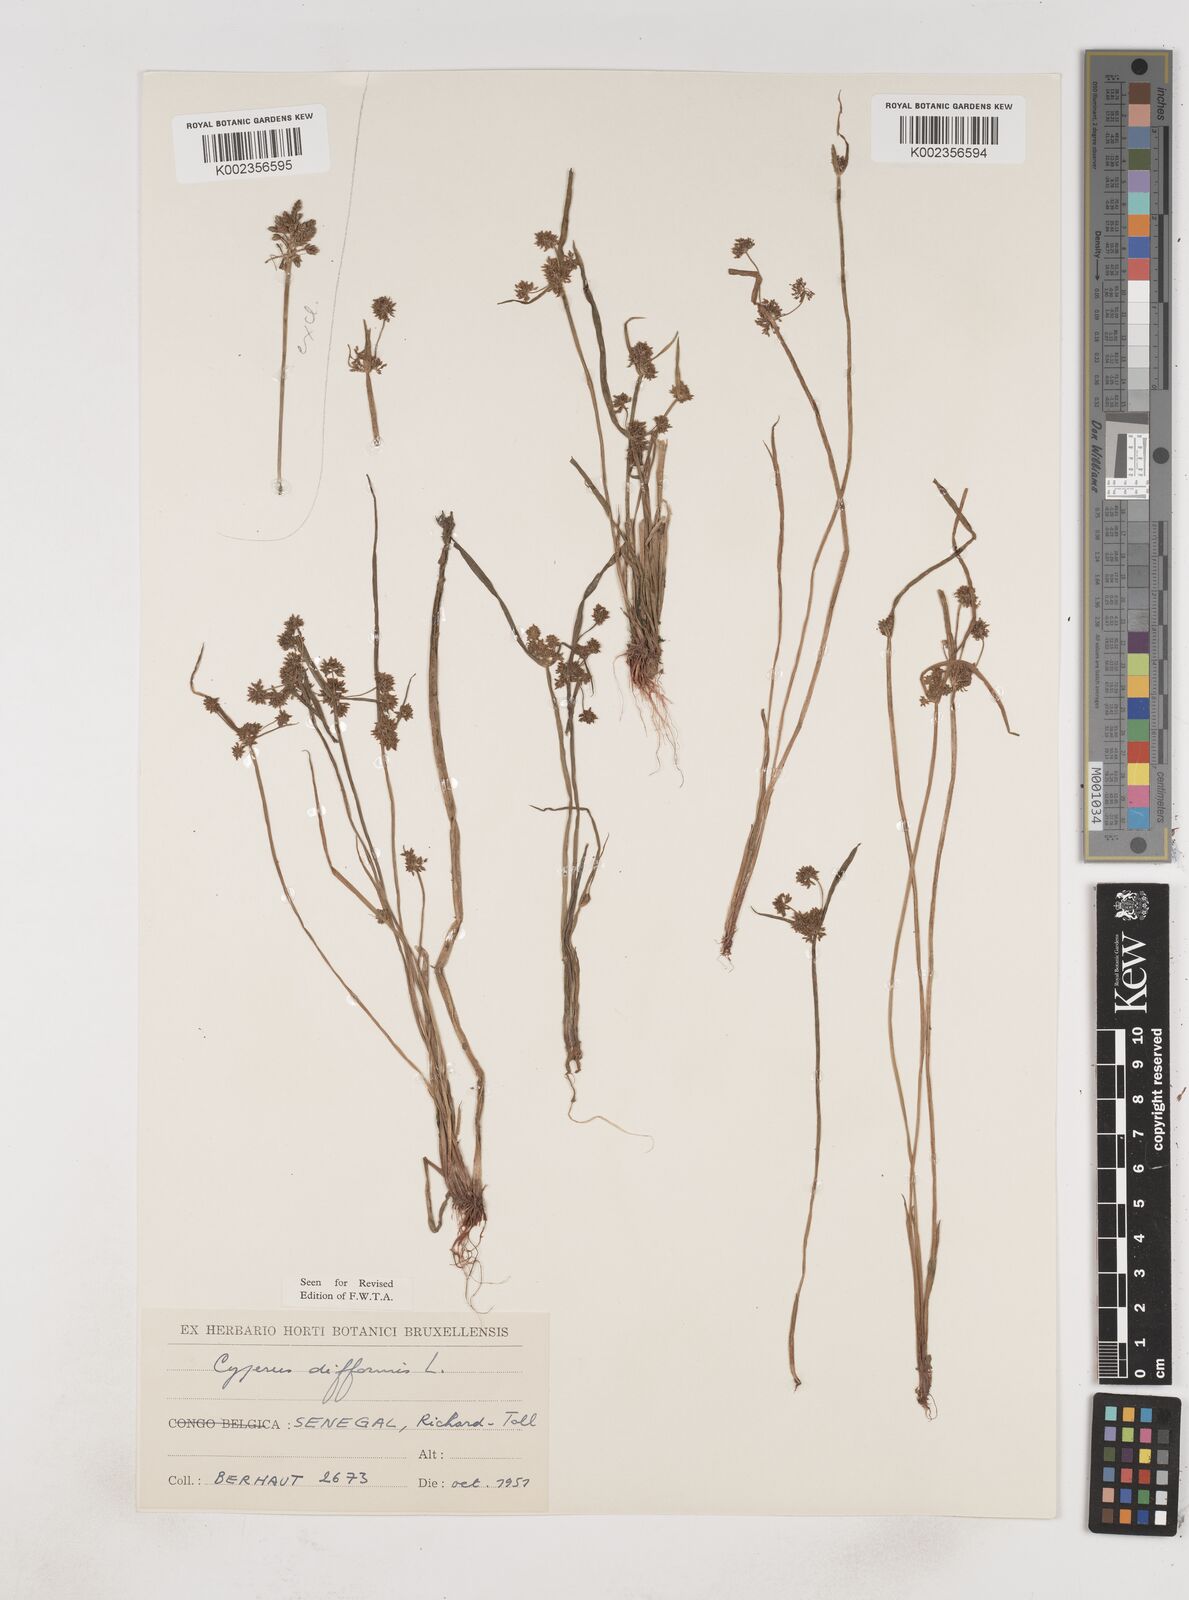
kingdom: Plantae
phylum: Tracheophyta
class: Liliopsida
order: Poales
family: Cyperaceae
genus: Cyperus
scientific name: Cyperus difformis
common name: Variable flatsedge
